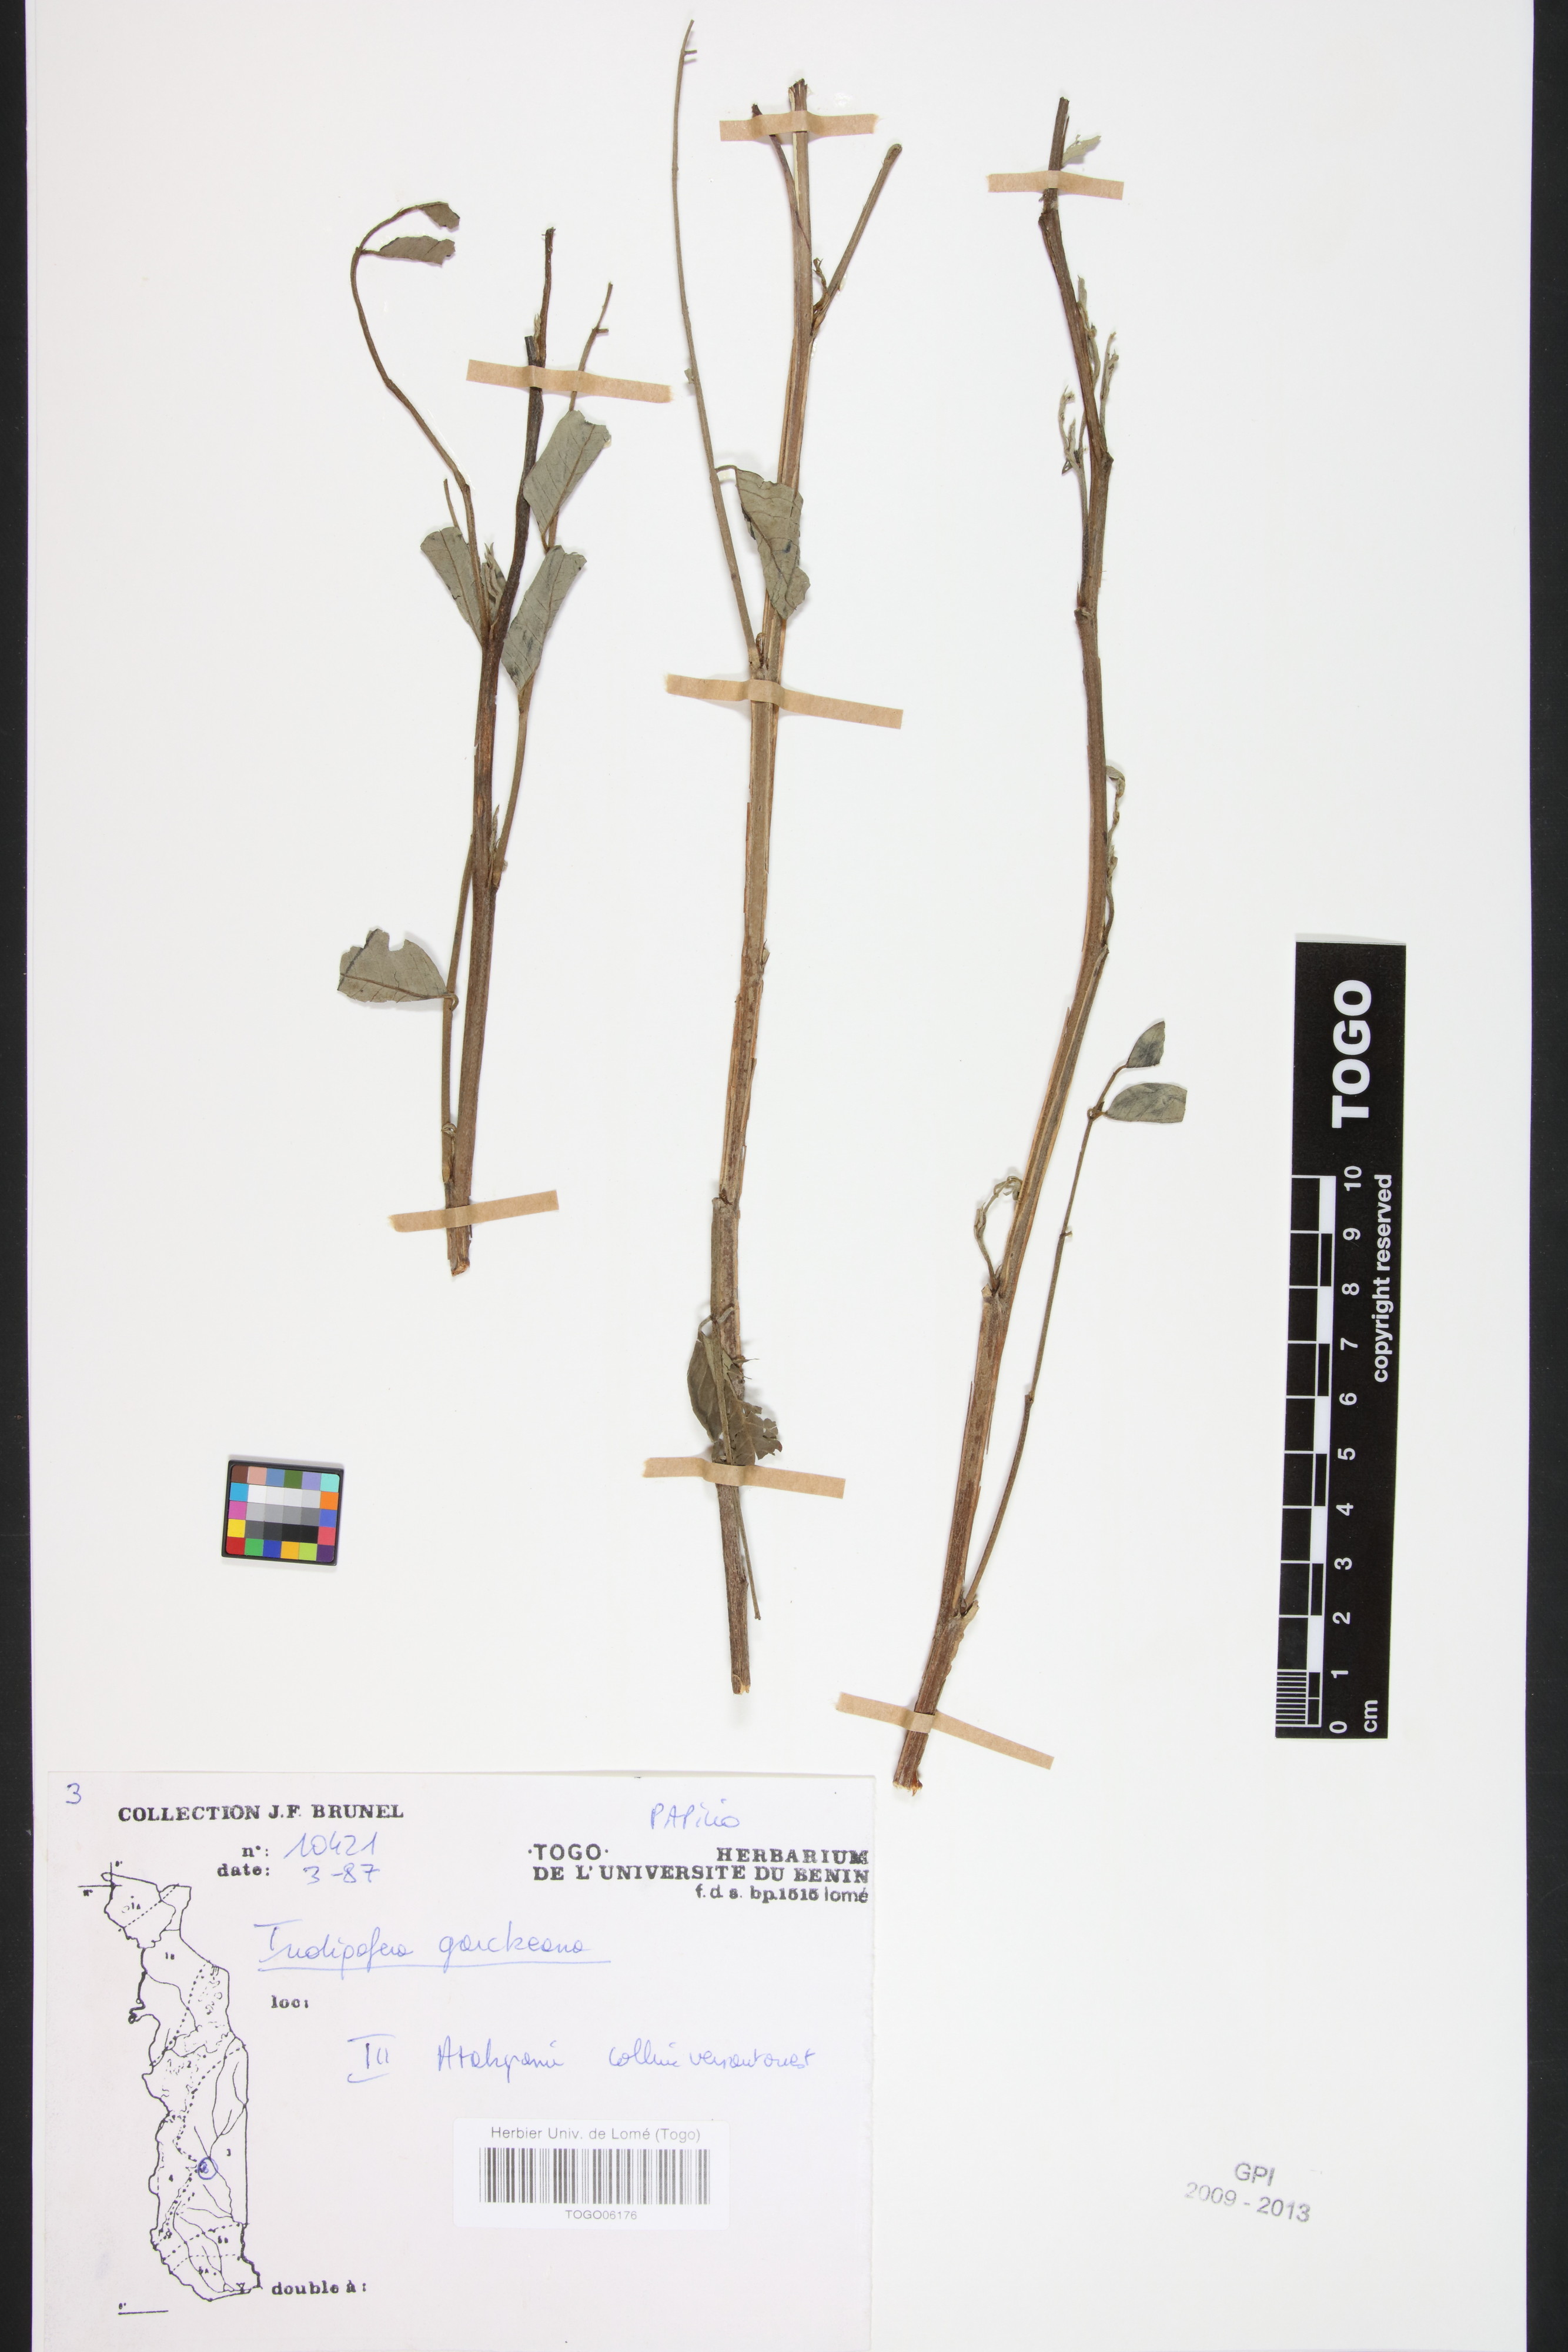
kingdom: Plantae
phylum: Tracheophyta
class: Magnoliopsida
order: Fabales
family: Fabaceae
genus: Indigofera
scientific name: Indigofera garckeana
